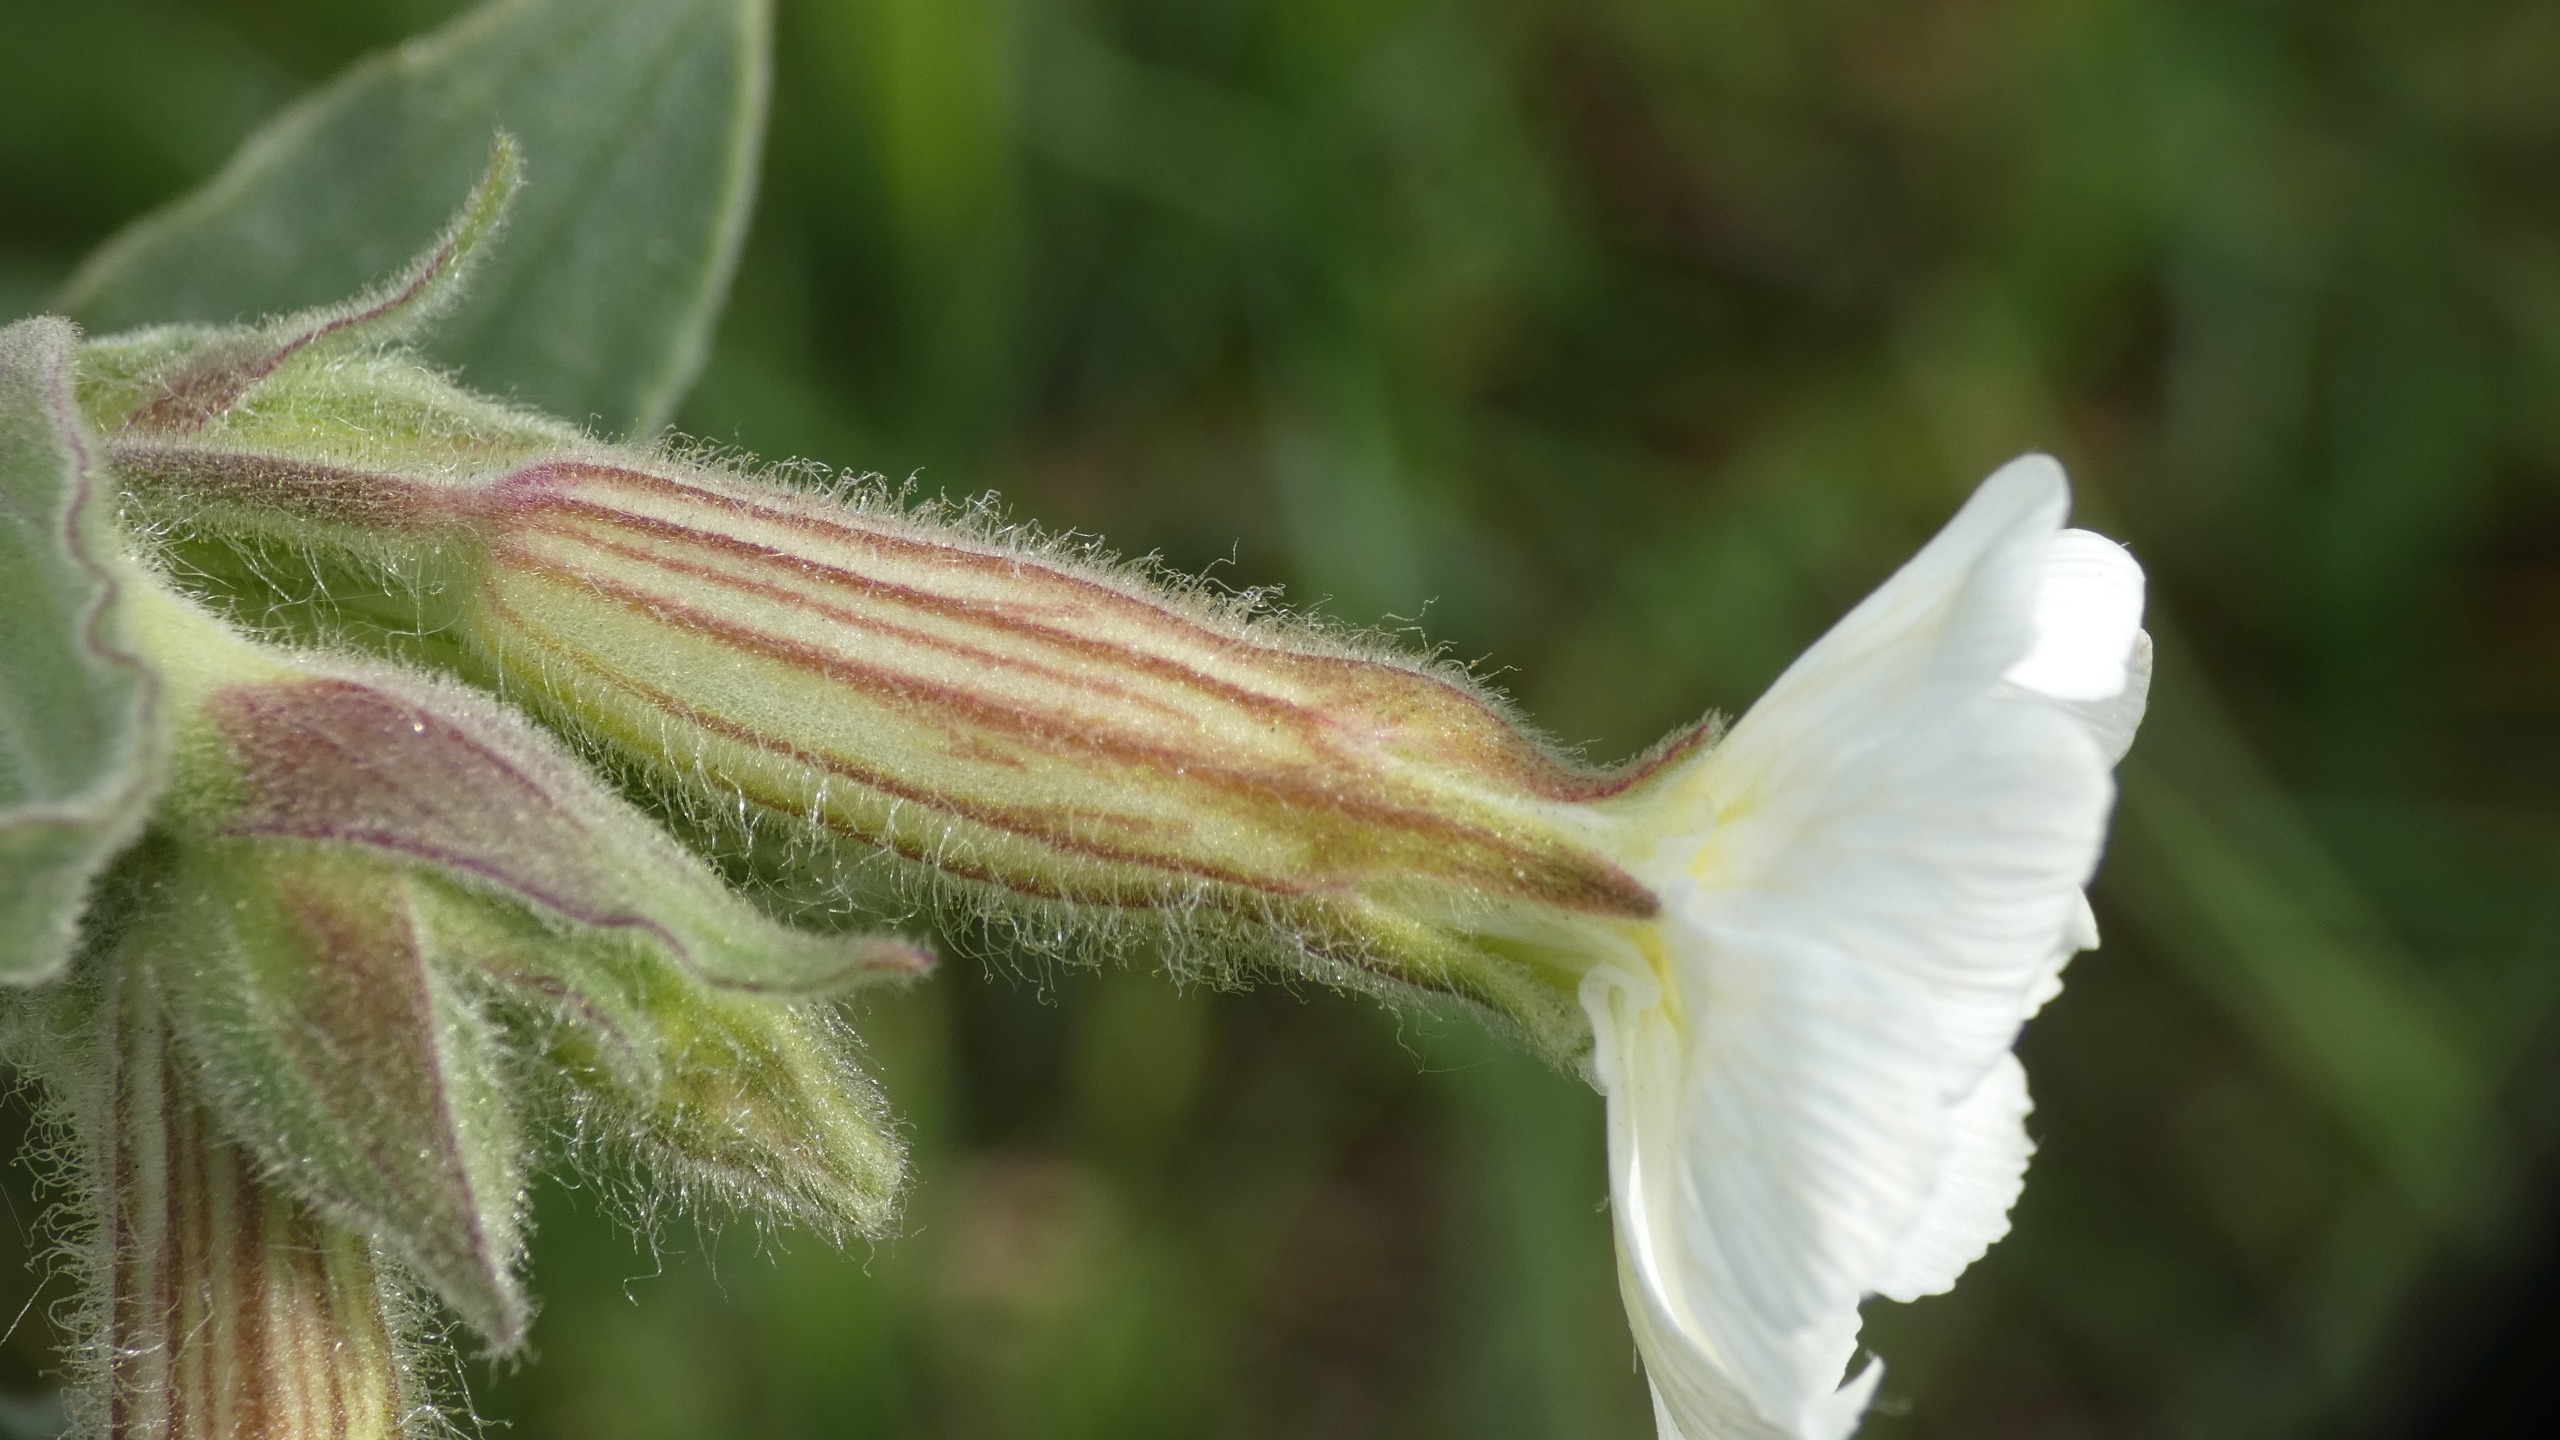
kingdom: Plantae
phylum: Tracheophyta
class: Magnoliopsida
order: Caryophyllales
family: Caryophyllaceae
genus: Silene
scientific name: Silene latifolia
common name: Aftenpragtstjerne
